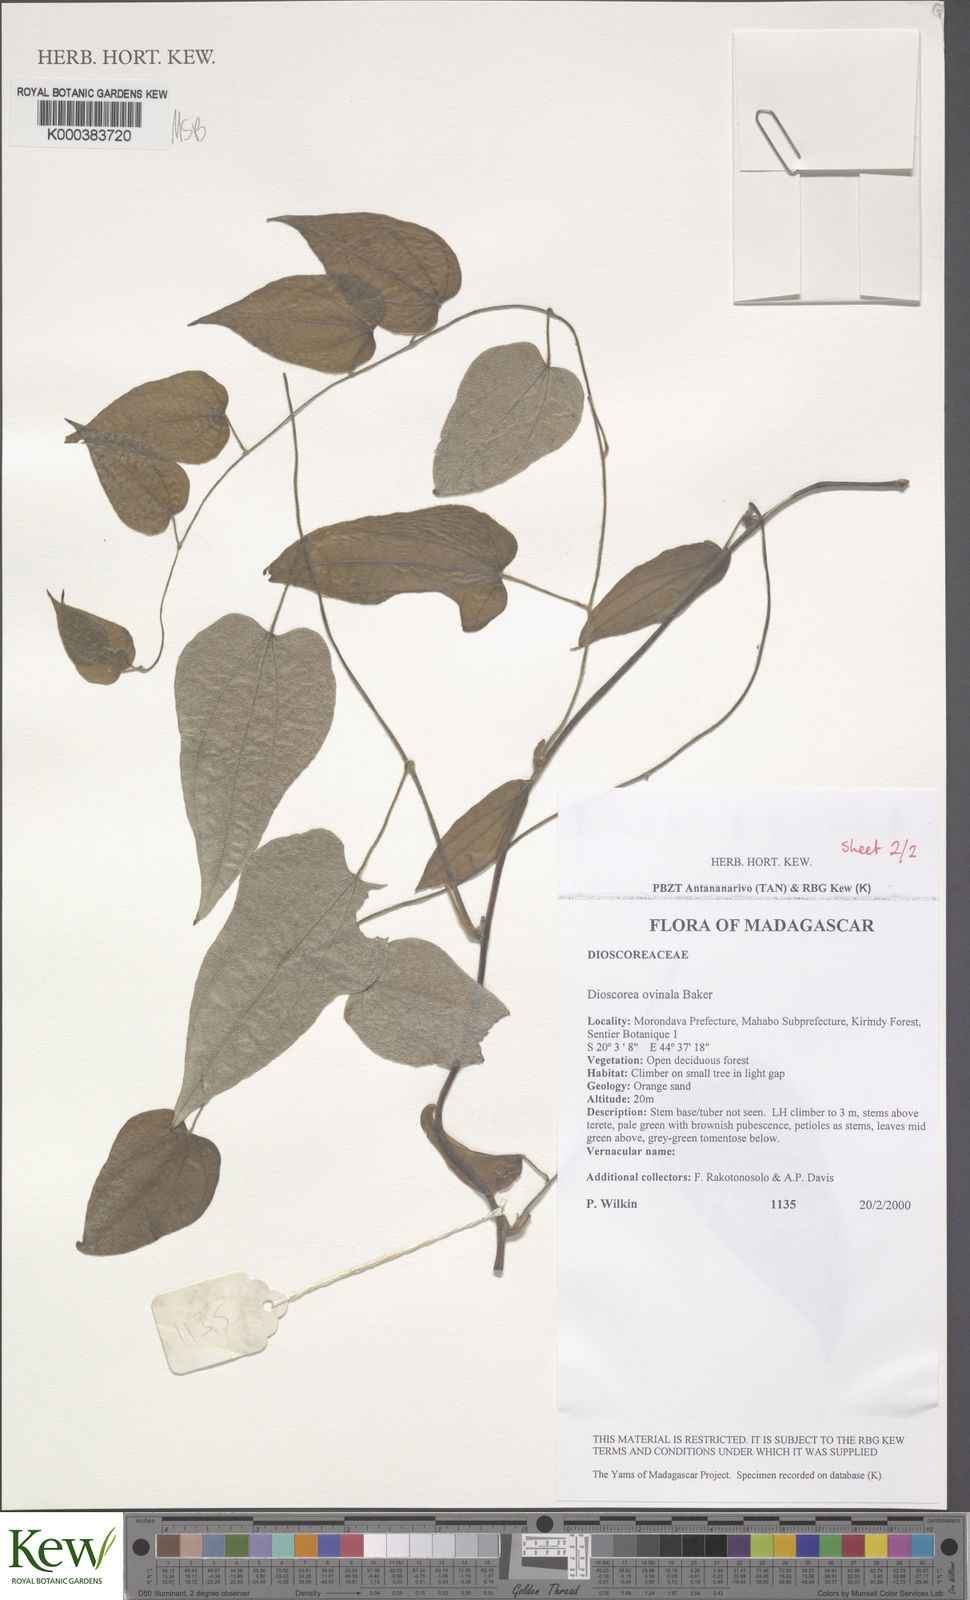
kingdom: Plantae
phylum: Tracheophyta
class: Liliopsida
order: Dioscoreales
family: Dioscoreaceae
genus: Dioscorea
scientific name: Dioscorea ovinala
